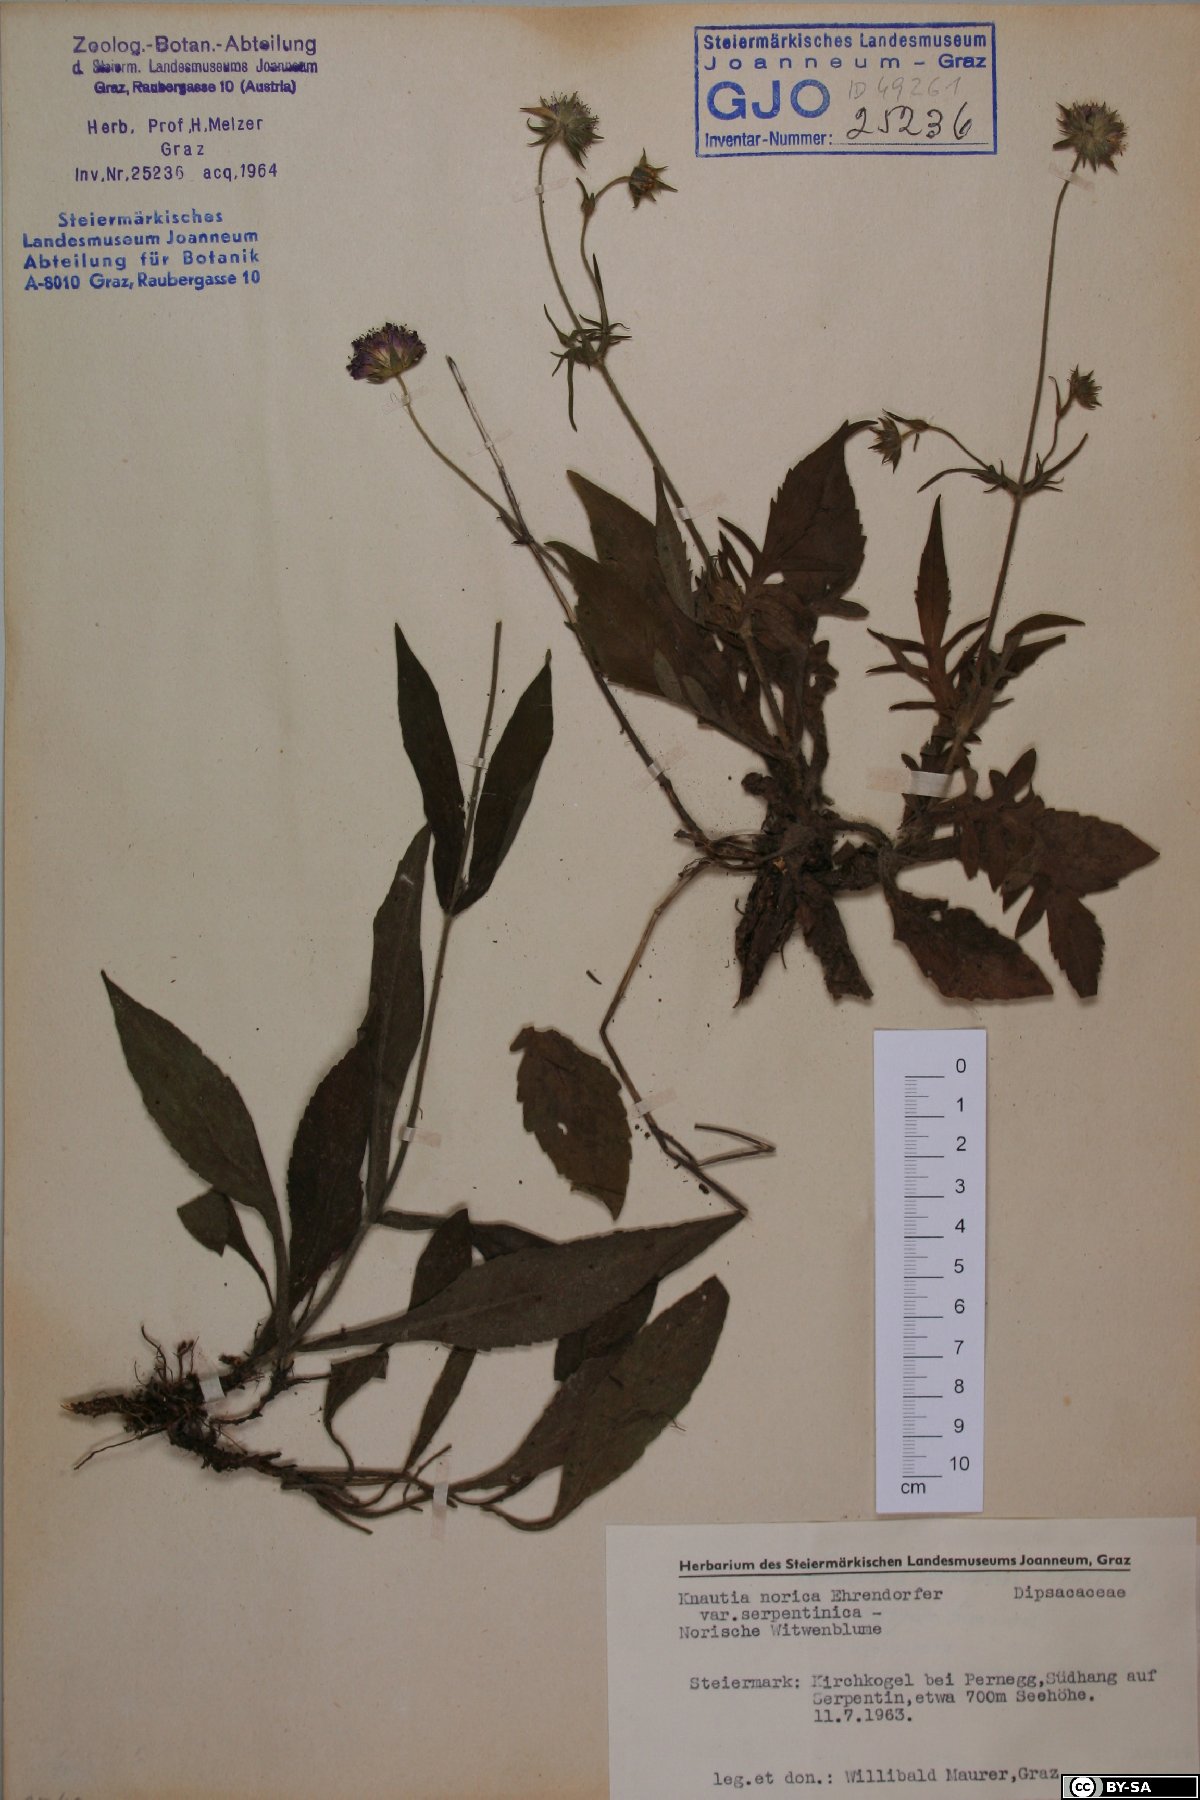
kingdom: Plantae
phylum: Tracheophyta
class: Magnoliopsida
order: Dipsacales
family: Caprifoliaceae
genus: Knautia
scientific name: Knautia norica
